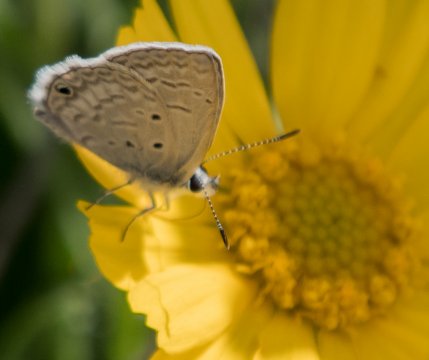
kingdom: Animalia
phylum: Arthropoda
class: Insecta
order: Lepidoptera
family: Lycaenidae
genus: Hemiargus
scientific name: Hemiargus ceraunus
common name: Ceraunus Blue
